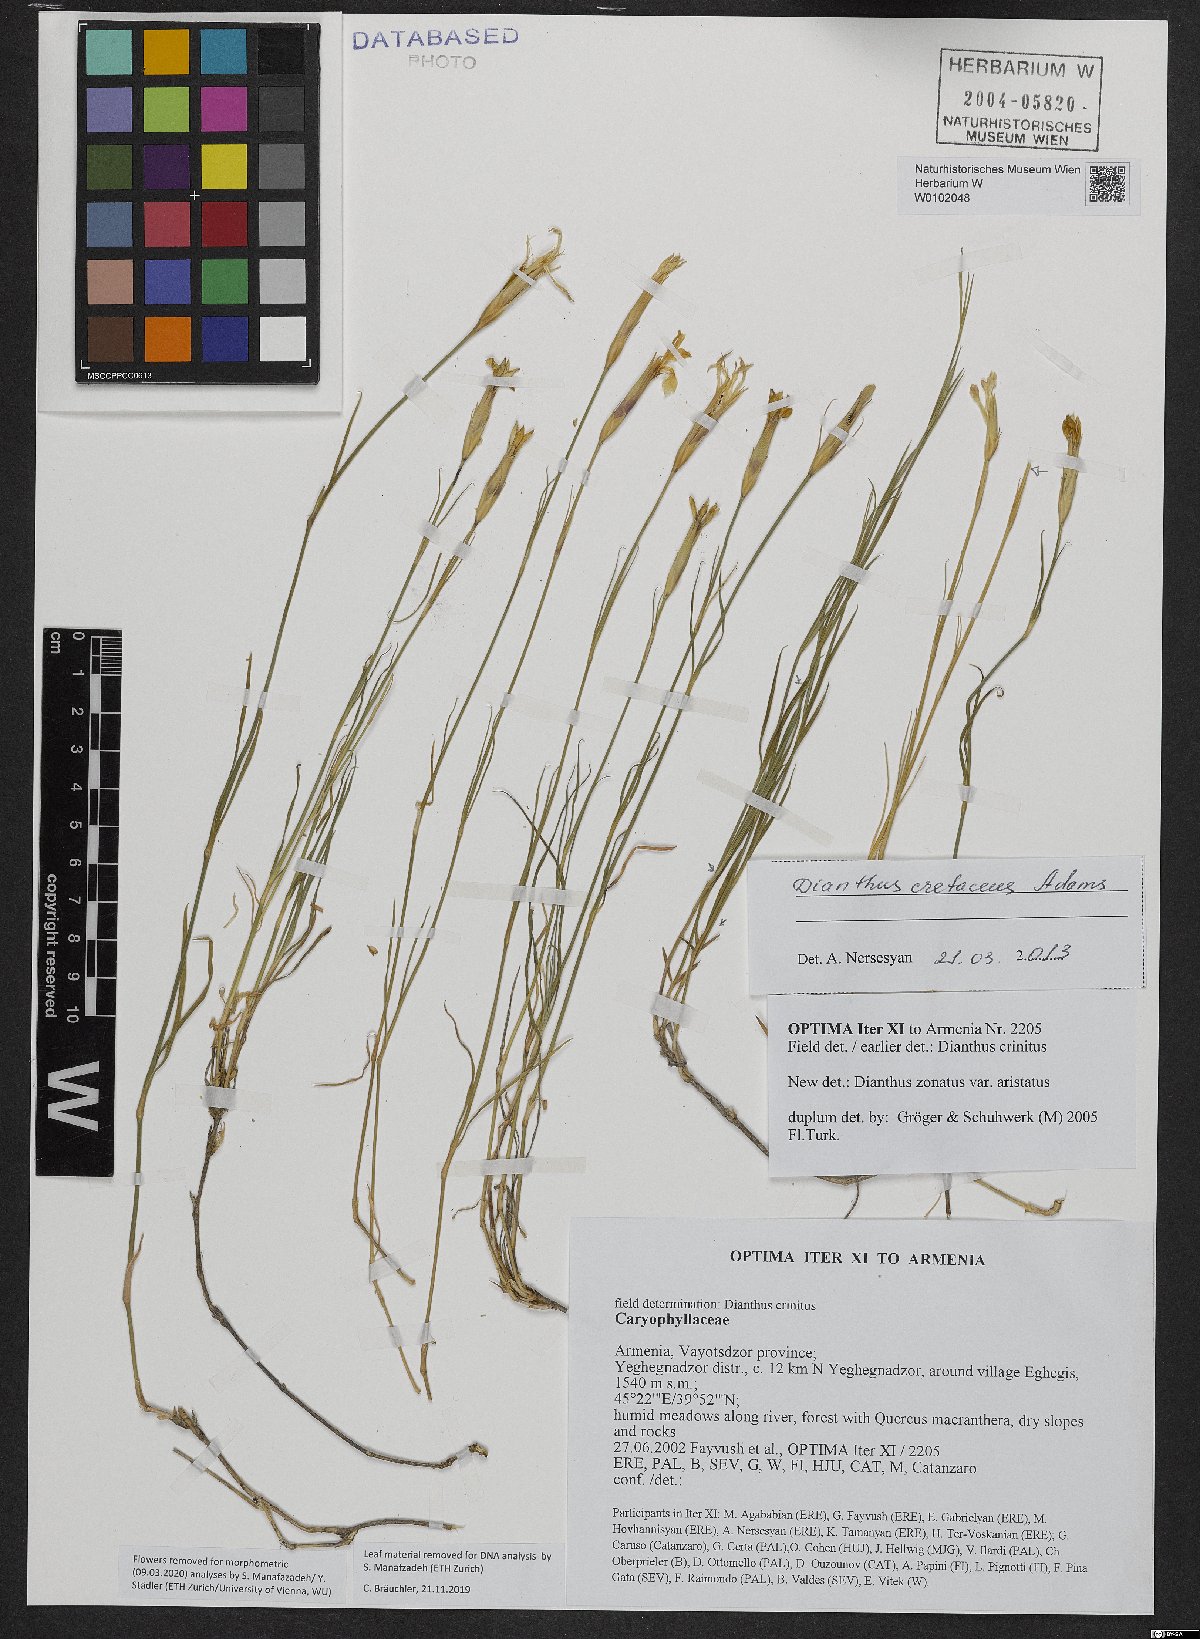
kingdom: Plantae
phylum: Tracheophyta
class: Magnoliopsida
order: Caryophyllales
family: Caryophyllaceae
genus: Dianthus
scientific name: Dianthus cretaceus
